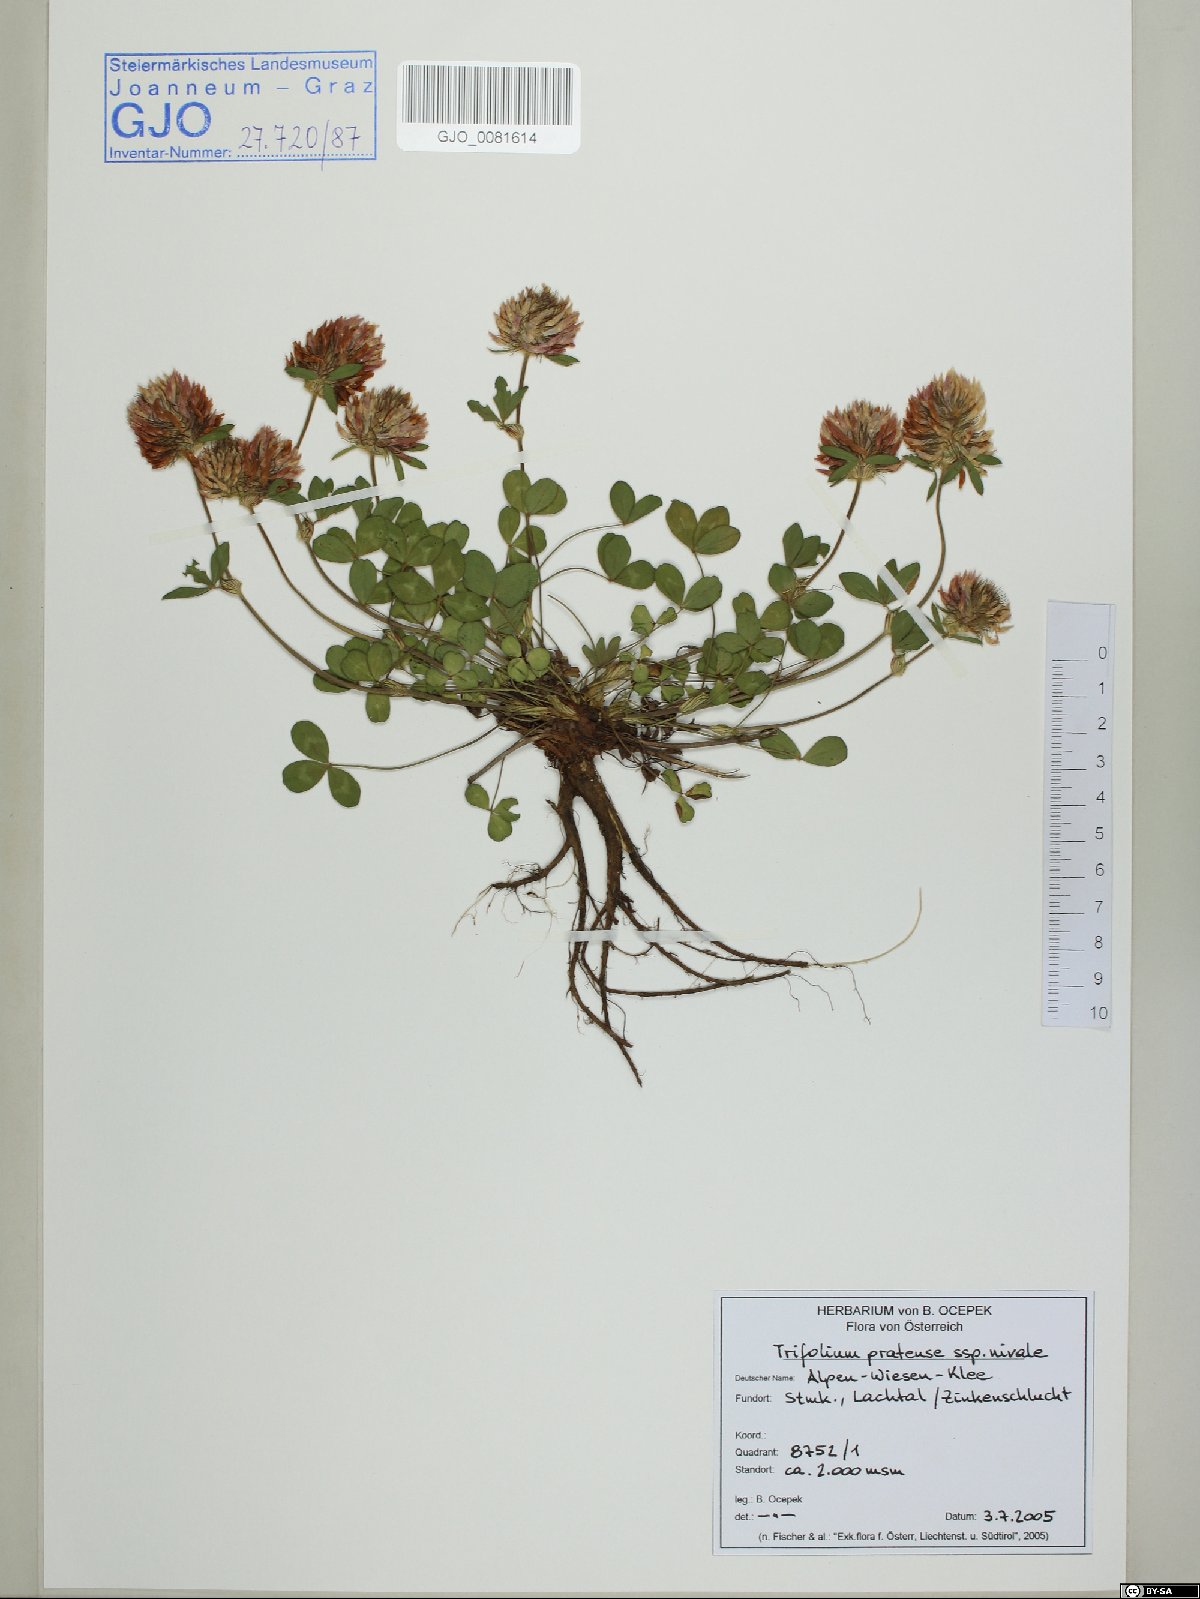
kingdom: Plantae
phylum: Tracheophyta
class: Magnoliopsida
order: Fabales
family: Fabaceae
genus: Trifolium
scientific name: Trifolium pratense
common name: Red clover
